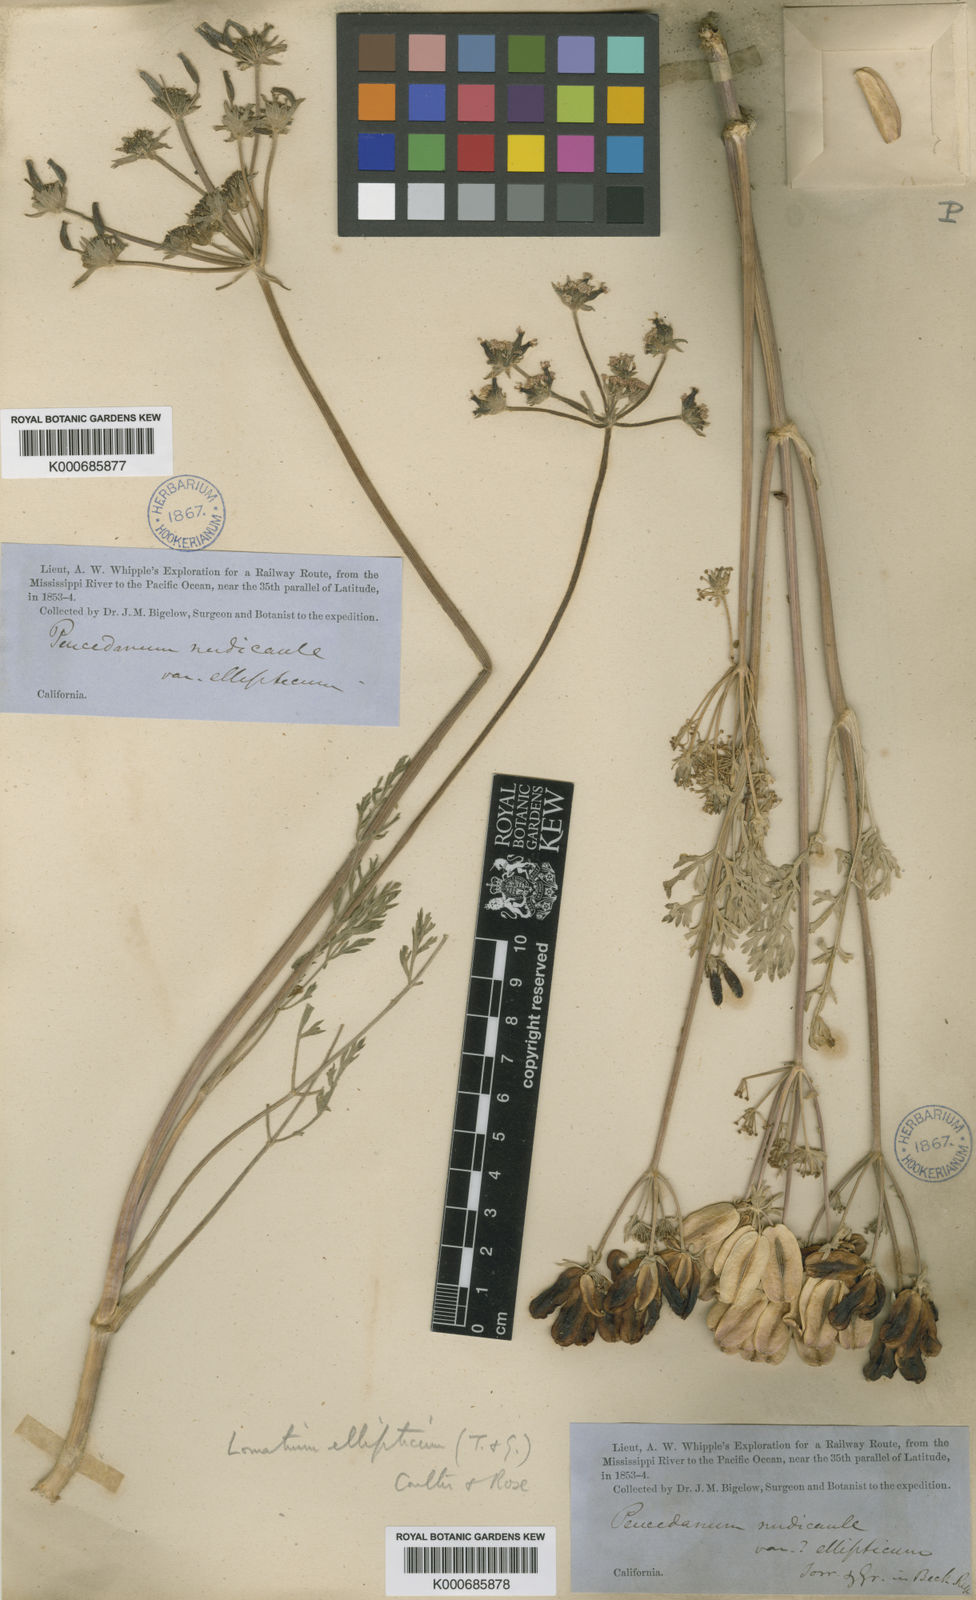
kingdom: Plantae
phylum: Tracheophyta
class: Magnoliopsida
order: Apiales
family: Apiaceae
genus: Lomatium
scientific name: Lomatium macrocarpum
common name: Big-seed biscuitroot
